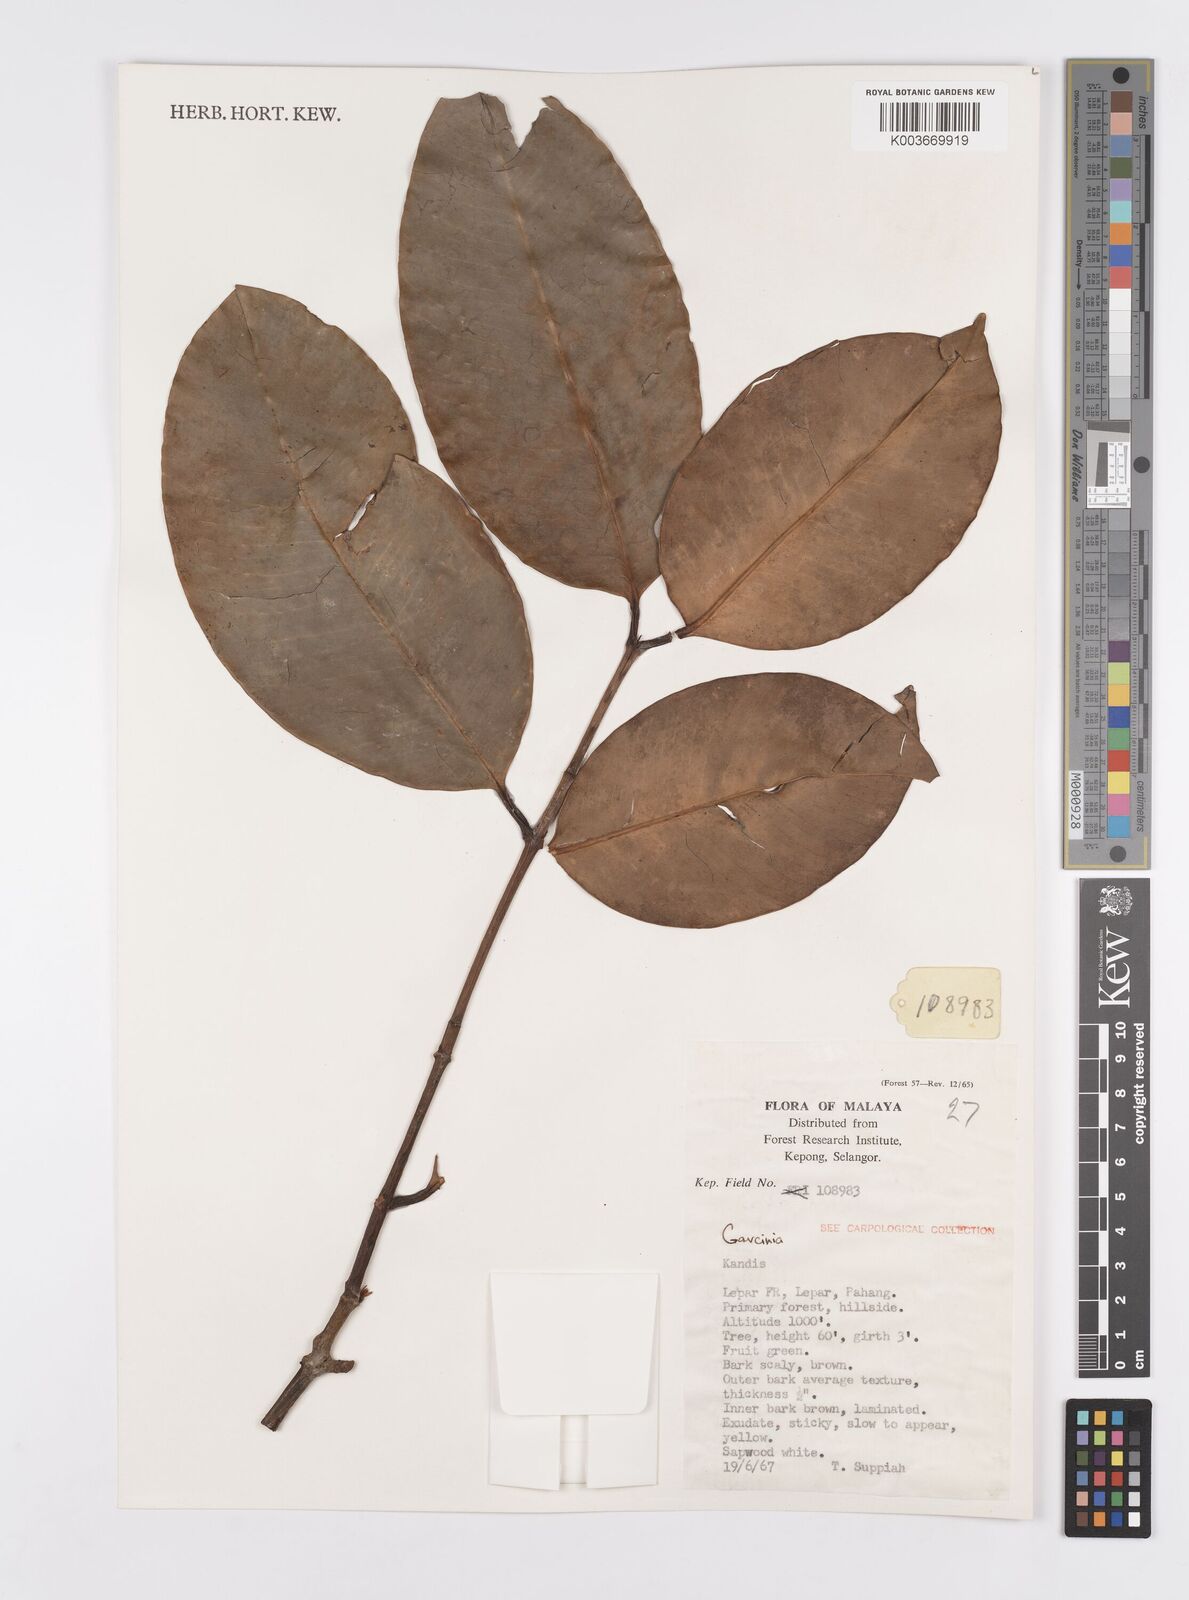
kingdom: Plantae
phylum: Tracheophyta
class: Magnoliopsida
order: Malpighiales
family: Clusiaceae
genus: Garcinia
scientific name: Garcinia
